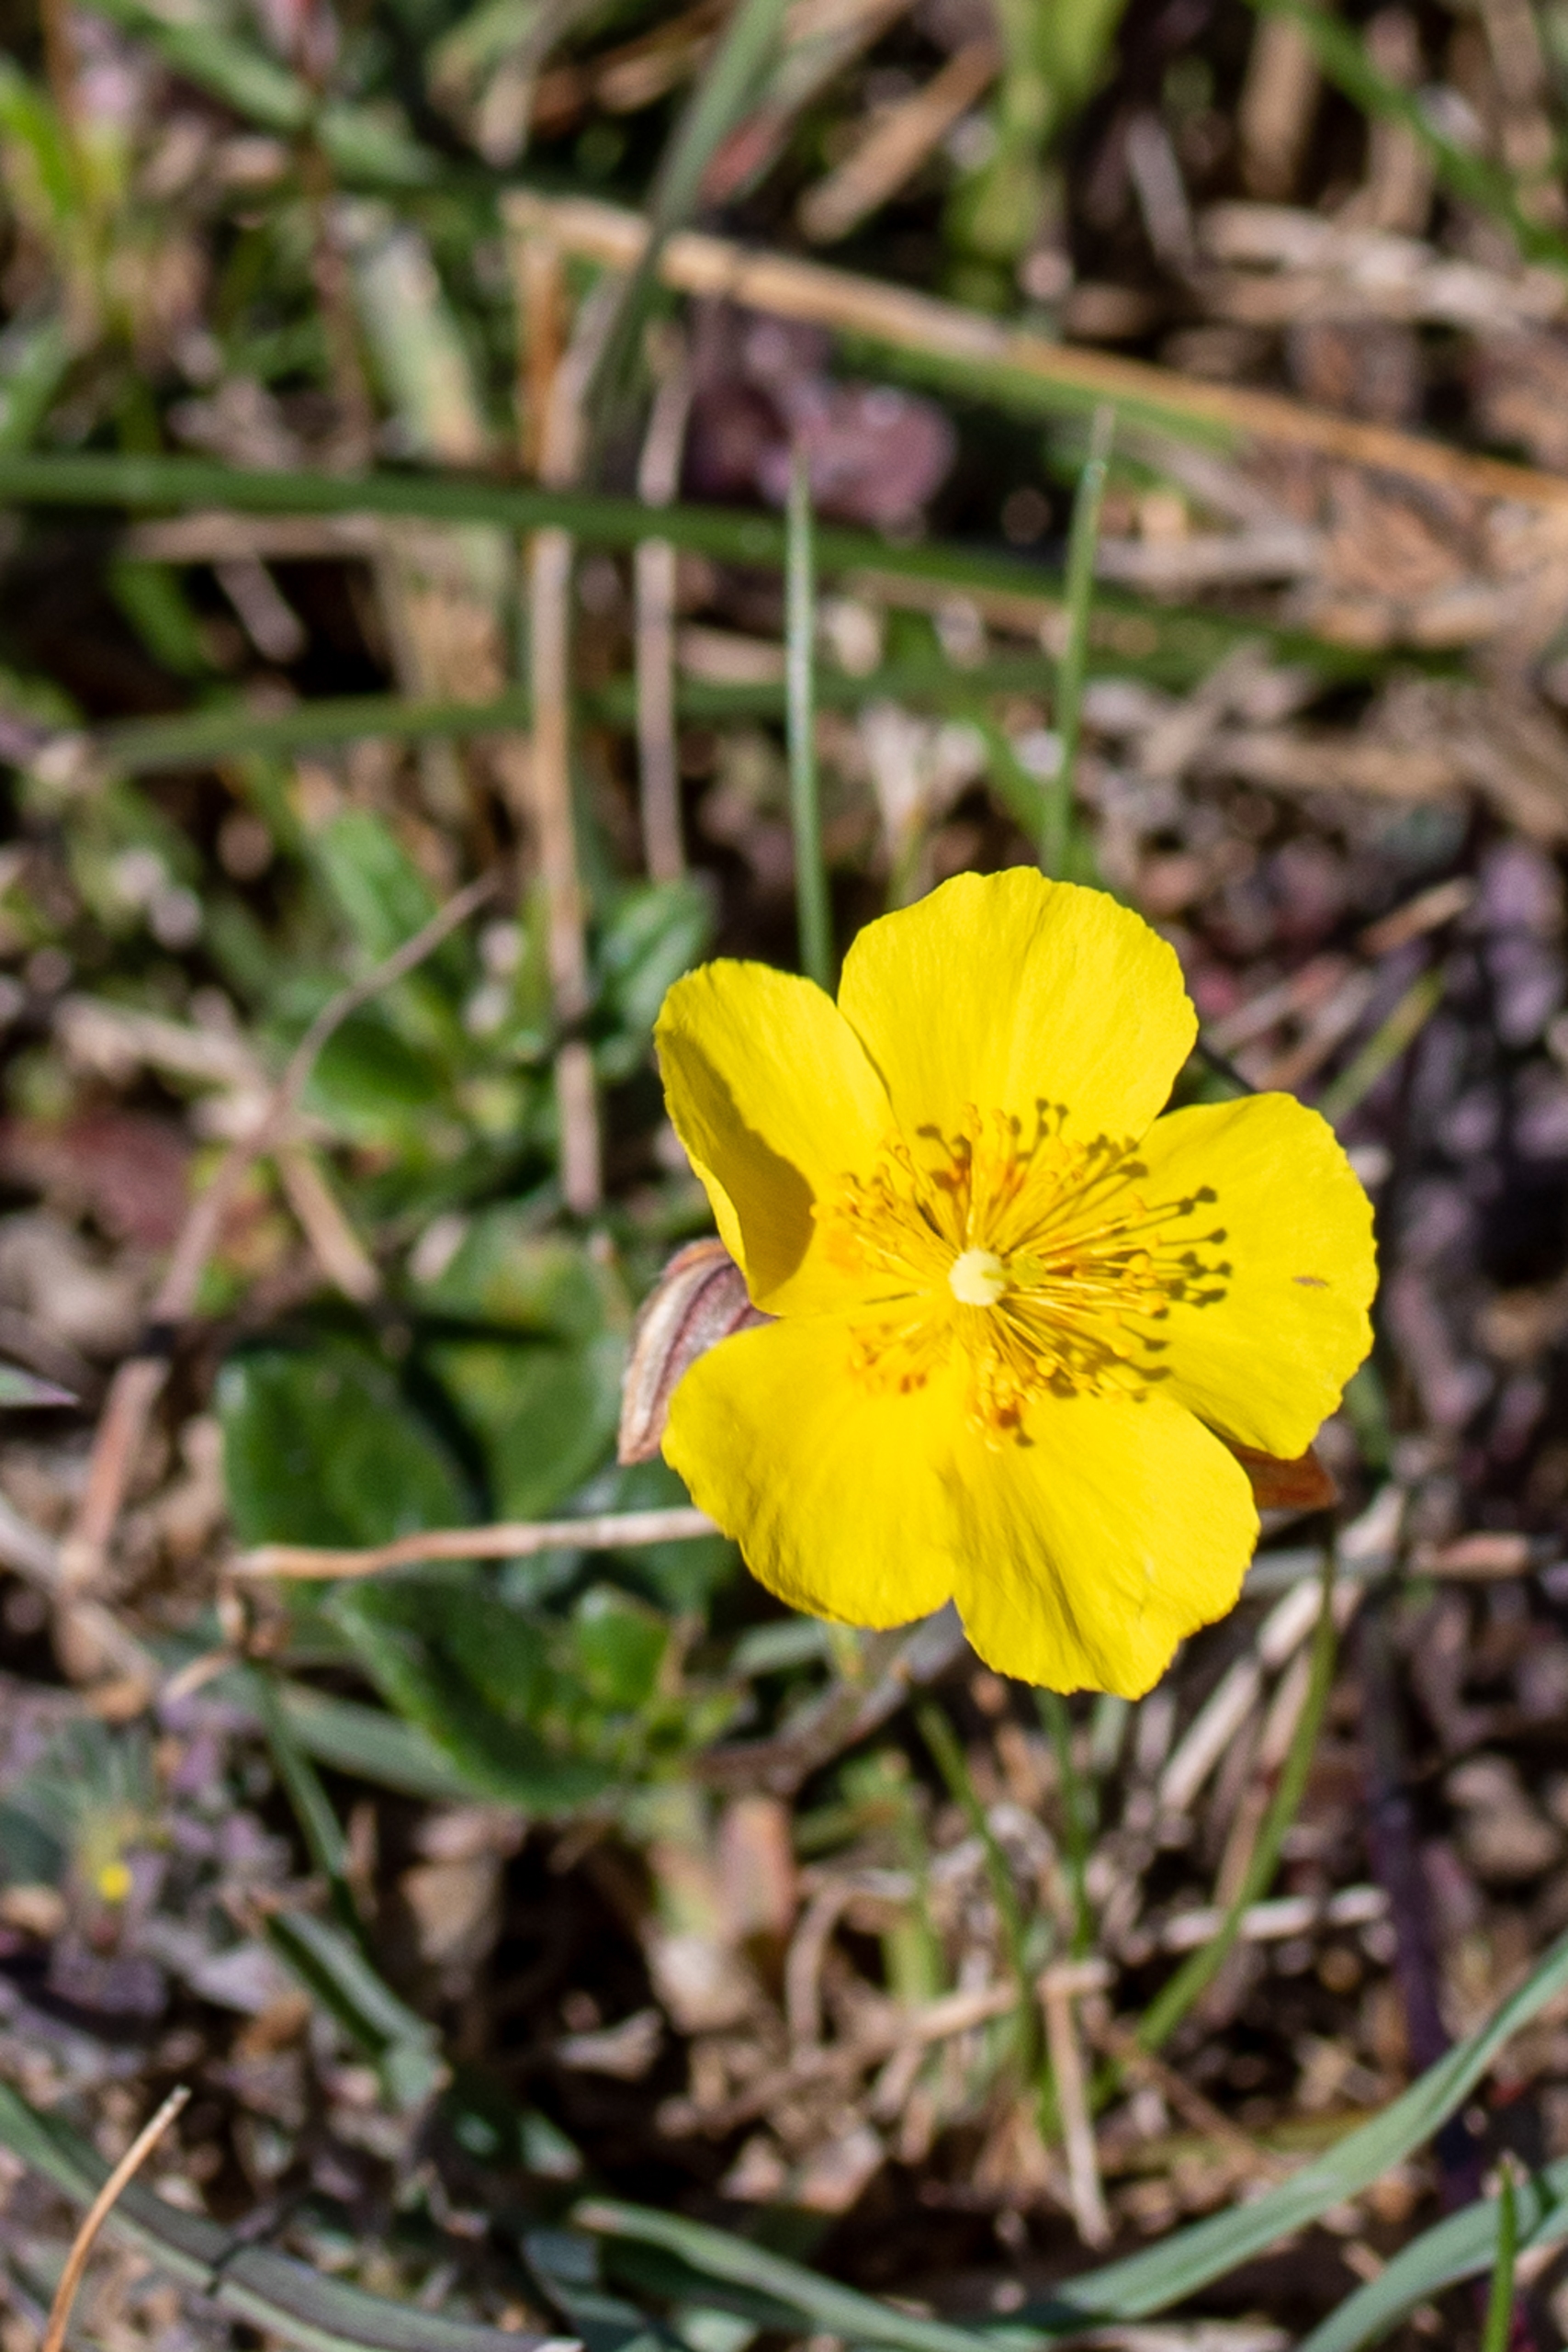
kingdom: Plantae
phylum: Tracheophyta
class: Magnoliopsida
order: Malvales
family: Cistaceae
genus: Helianthemum
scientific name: Helianthemum nummularium
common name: Soløje
